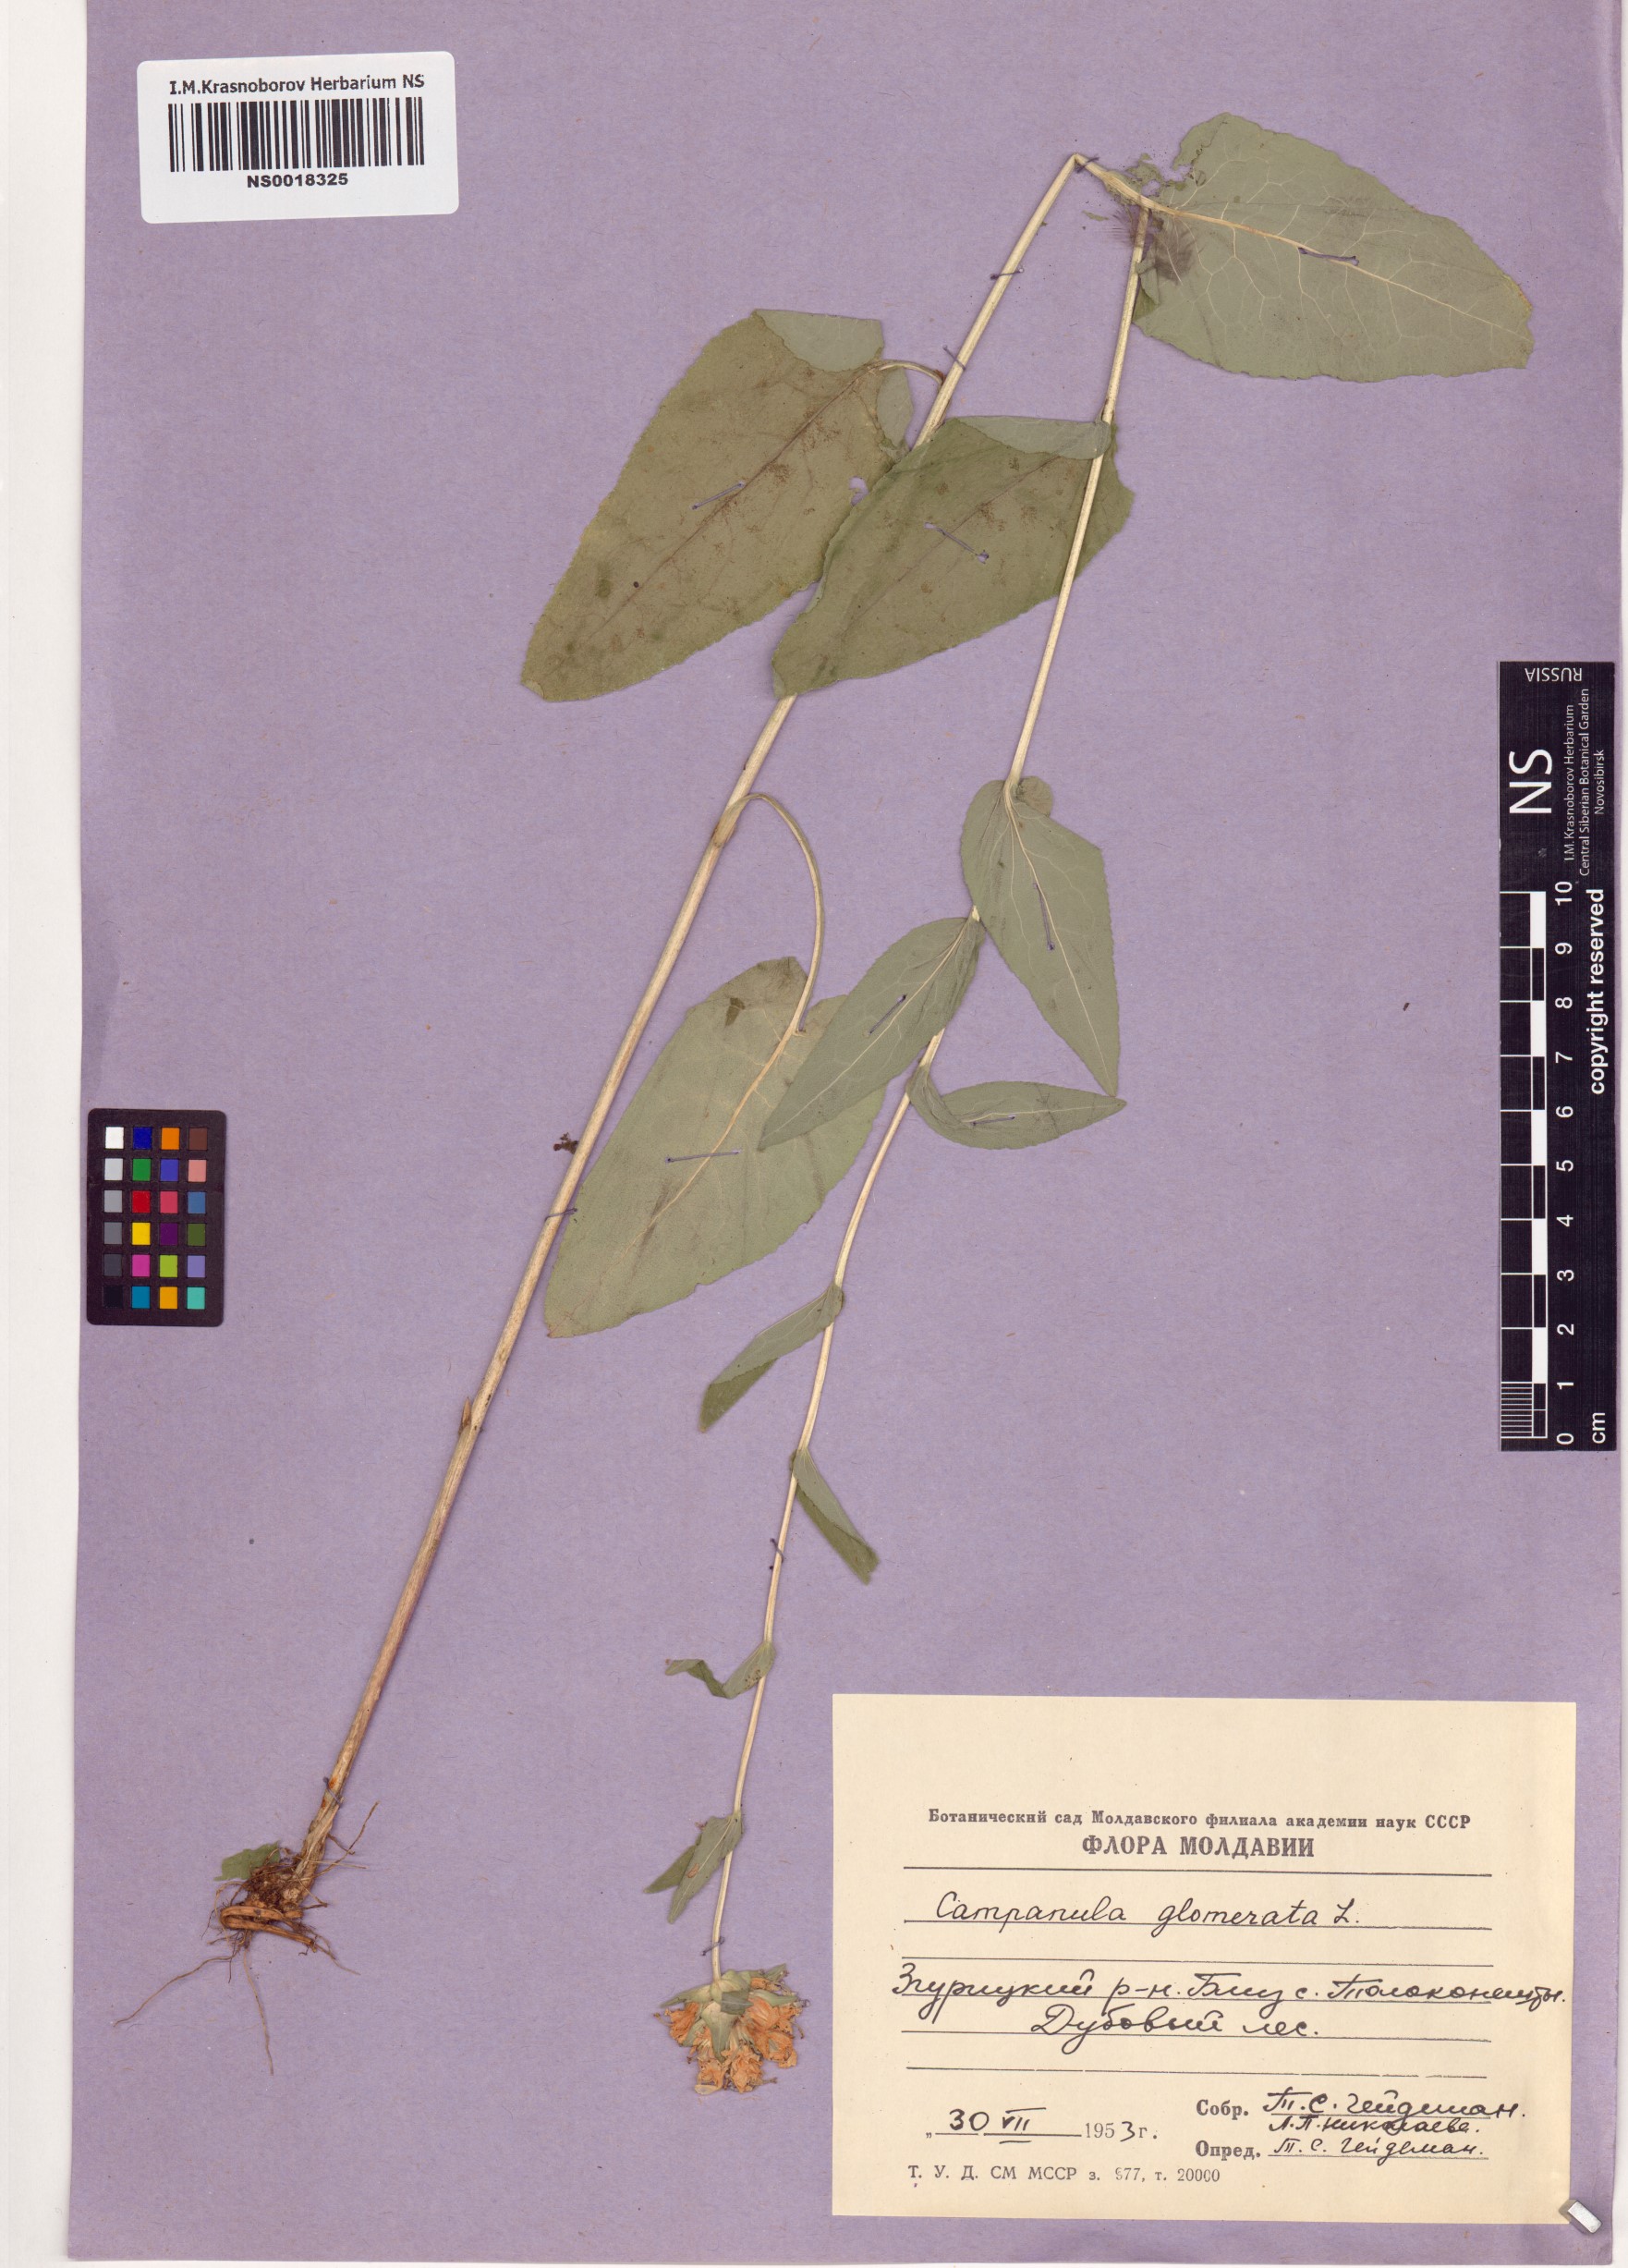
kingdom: Plantae
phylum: Tracheophyta
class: Magnoliopsida
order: Asterales
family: Campanulaceae
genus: Campanula
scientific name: Campanula glomerata
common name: Clustered bellflower
